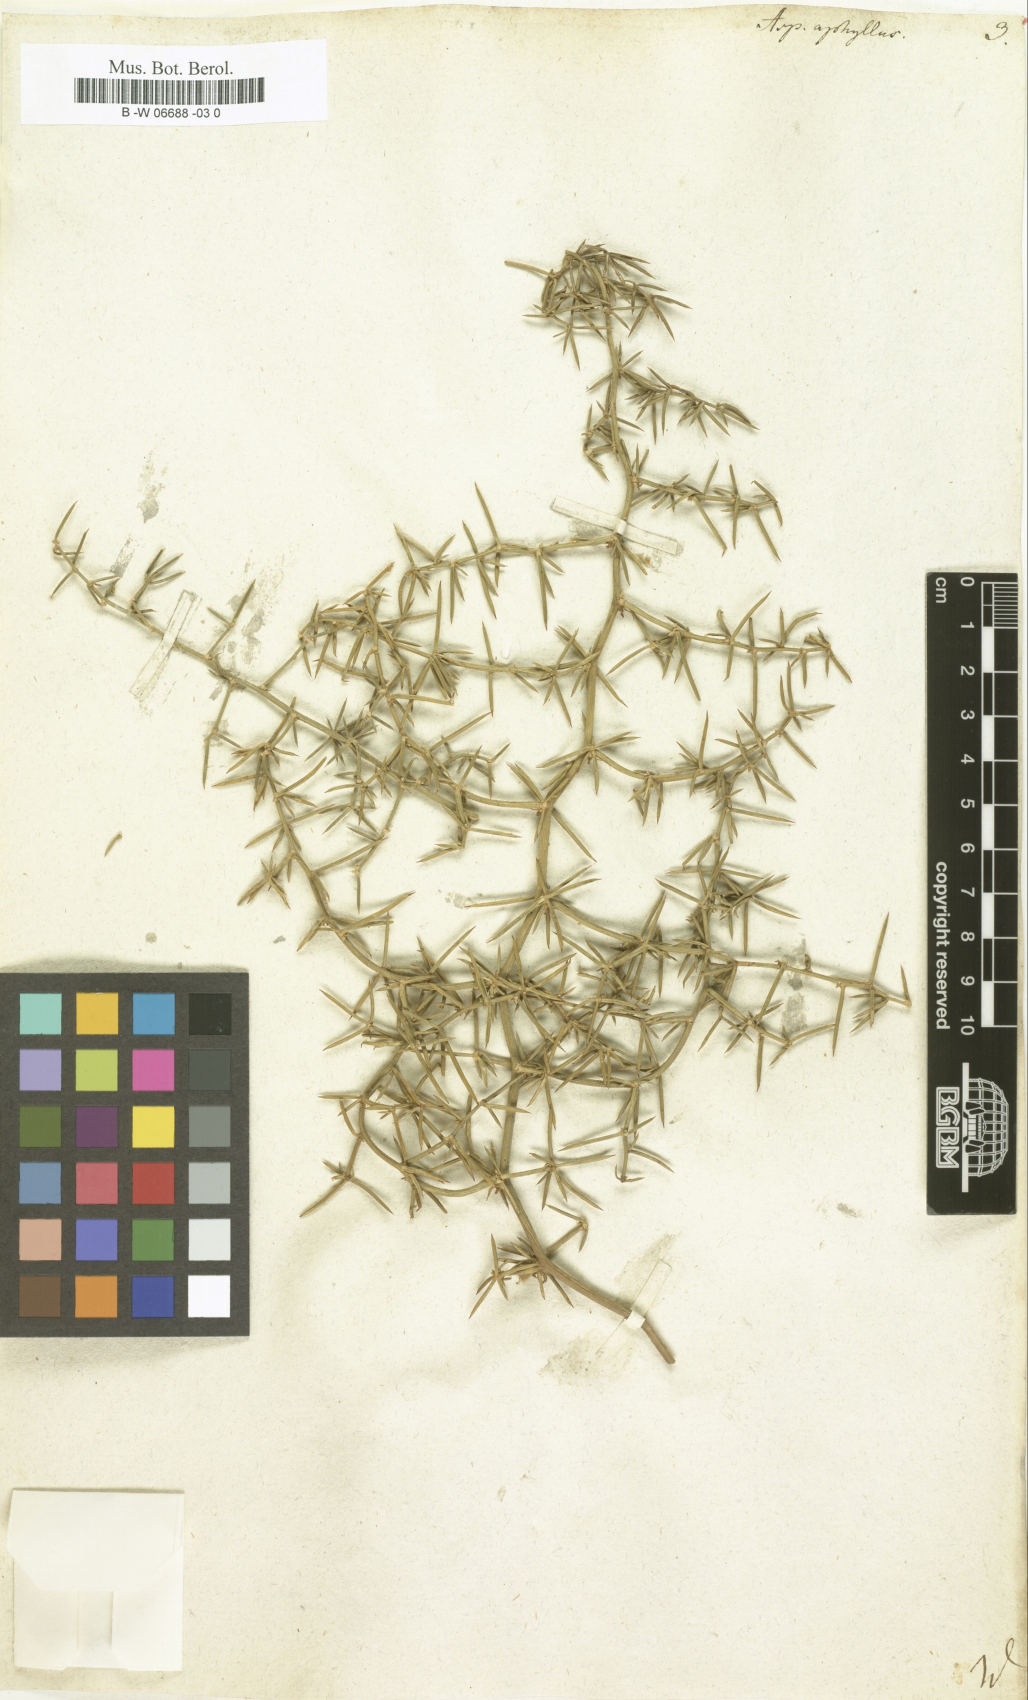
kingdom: Plantae
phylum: Tracheophyta
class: Liliopsida
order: Asparagales
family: Asparagaceae
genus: Asparagus
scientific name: Asparagus aphyllus
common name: Mediterranean asparagus
